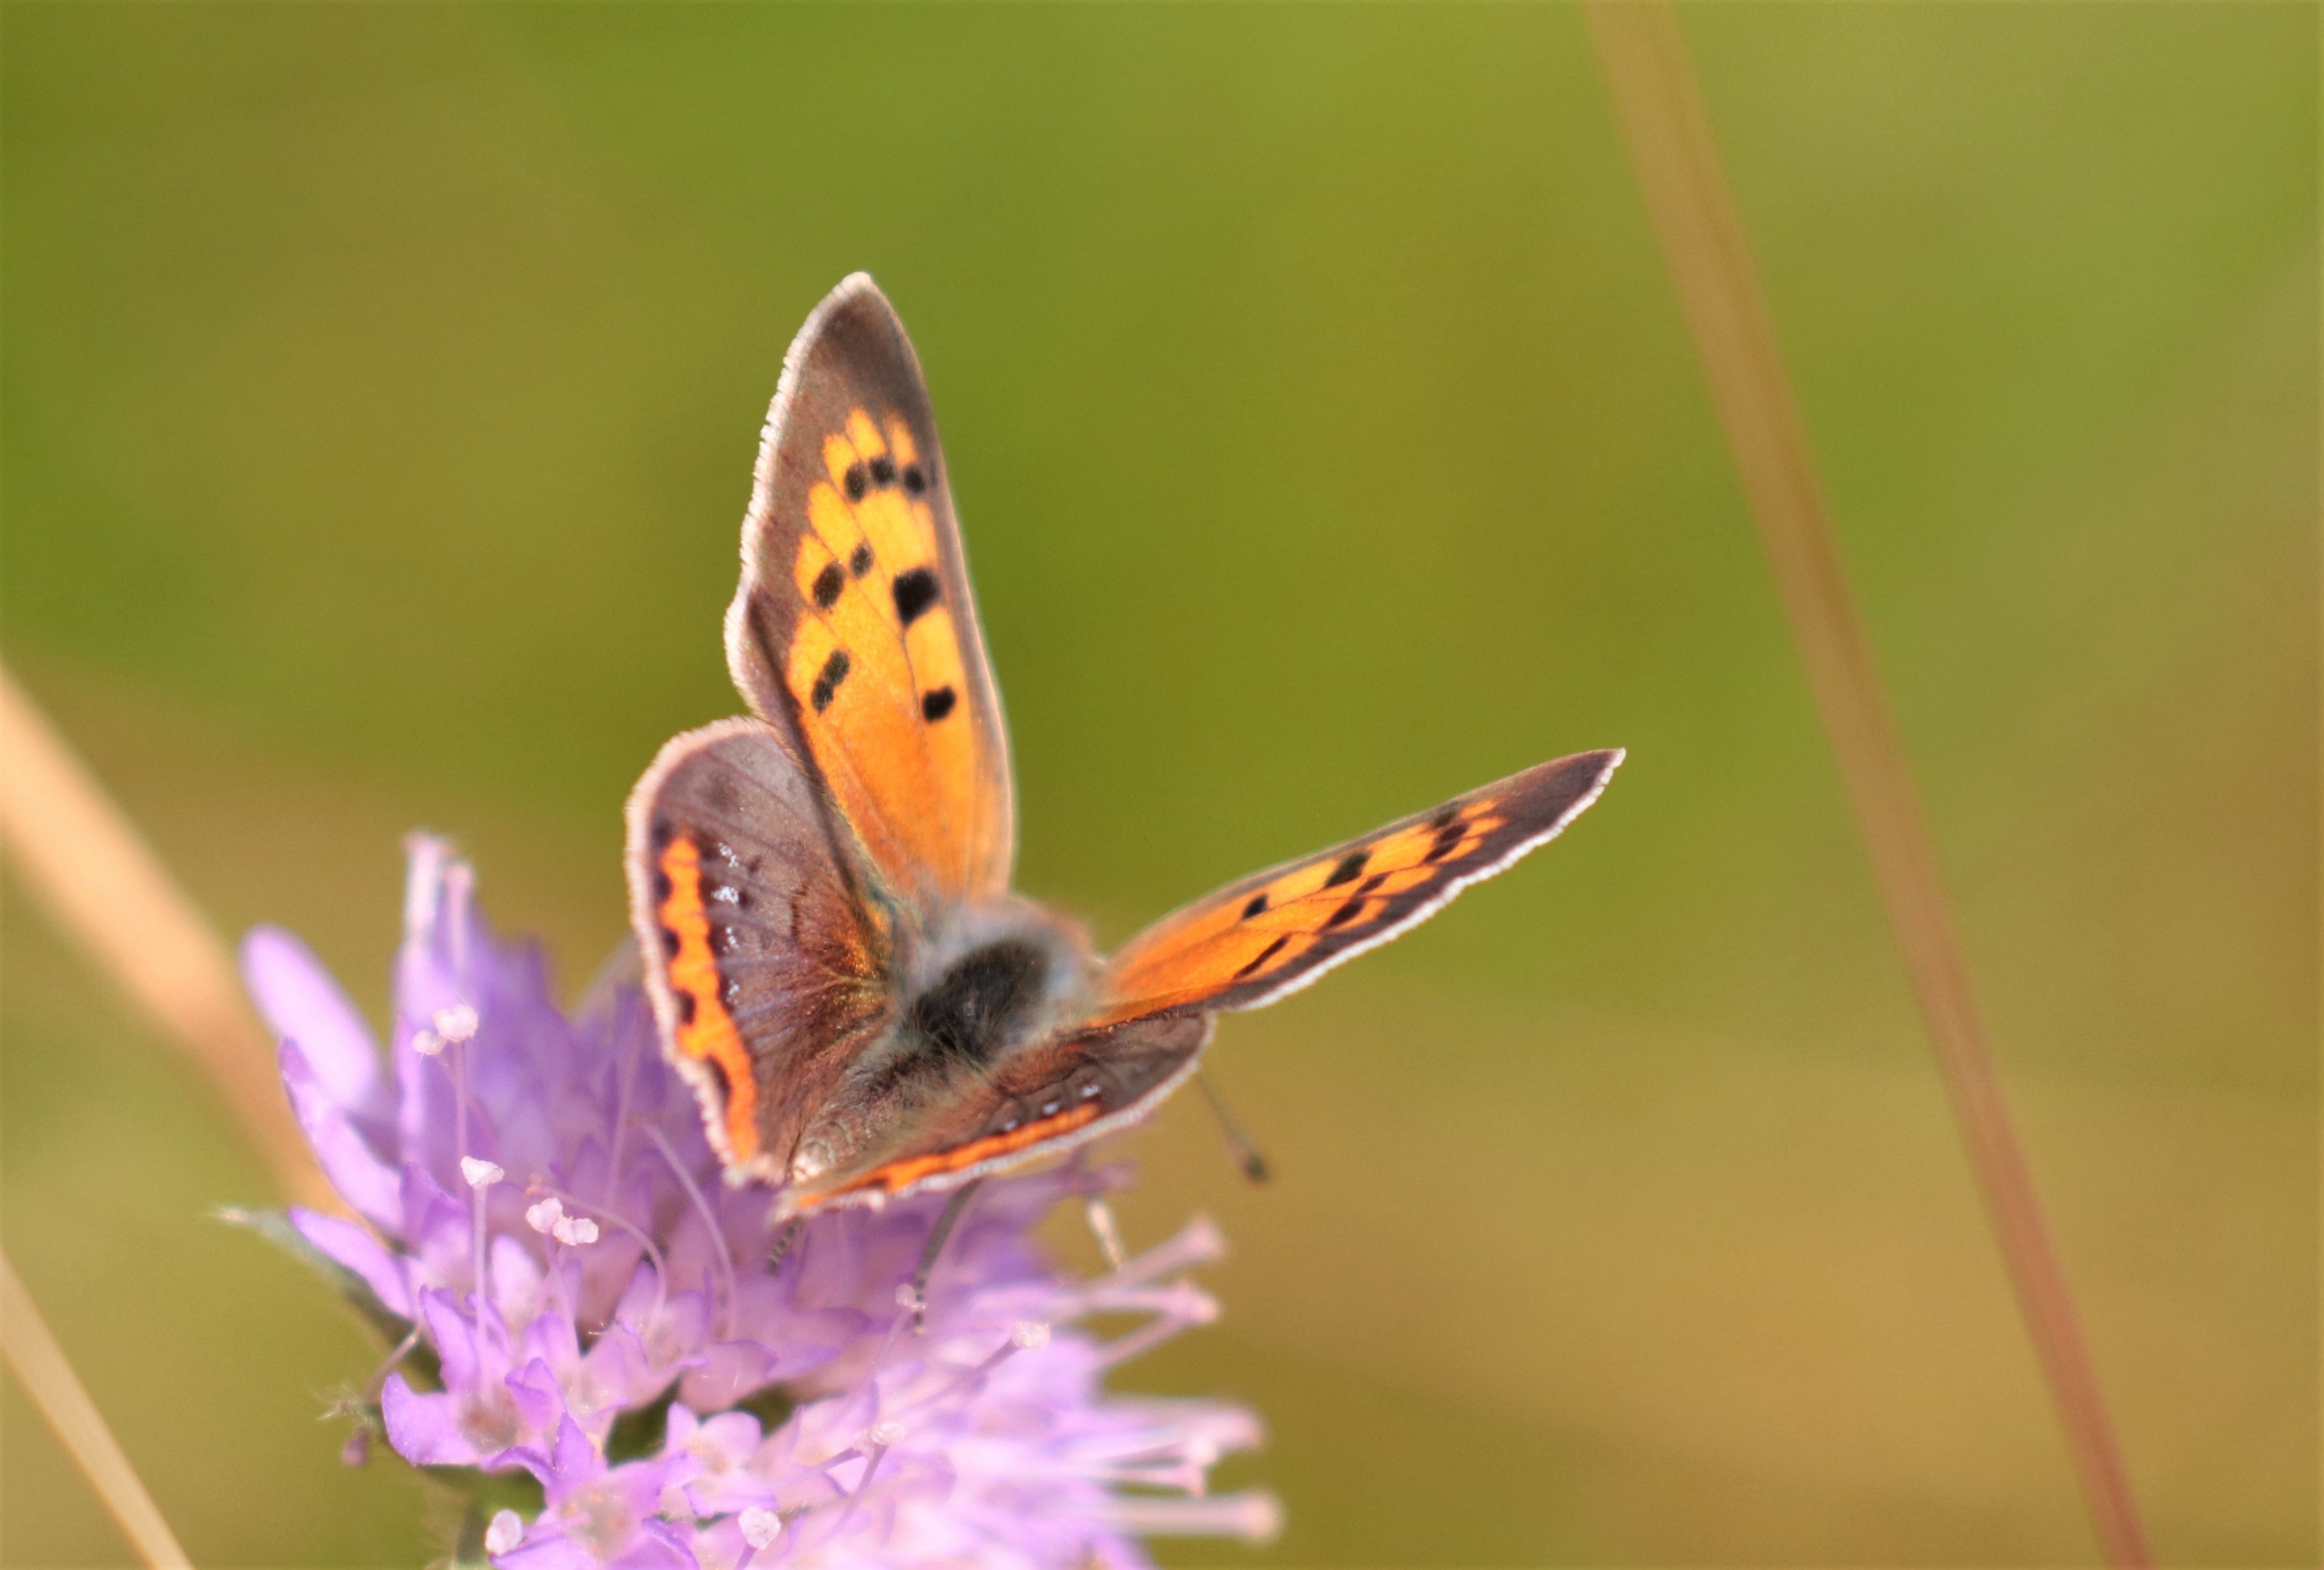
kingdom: Animalia
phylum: Arthropoda
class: Insecta
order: Lepidoptera
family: Lycaenidae
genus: Lycaena
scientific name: Lycaena phlaeas
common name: Lille ildfugl
